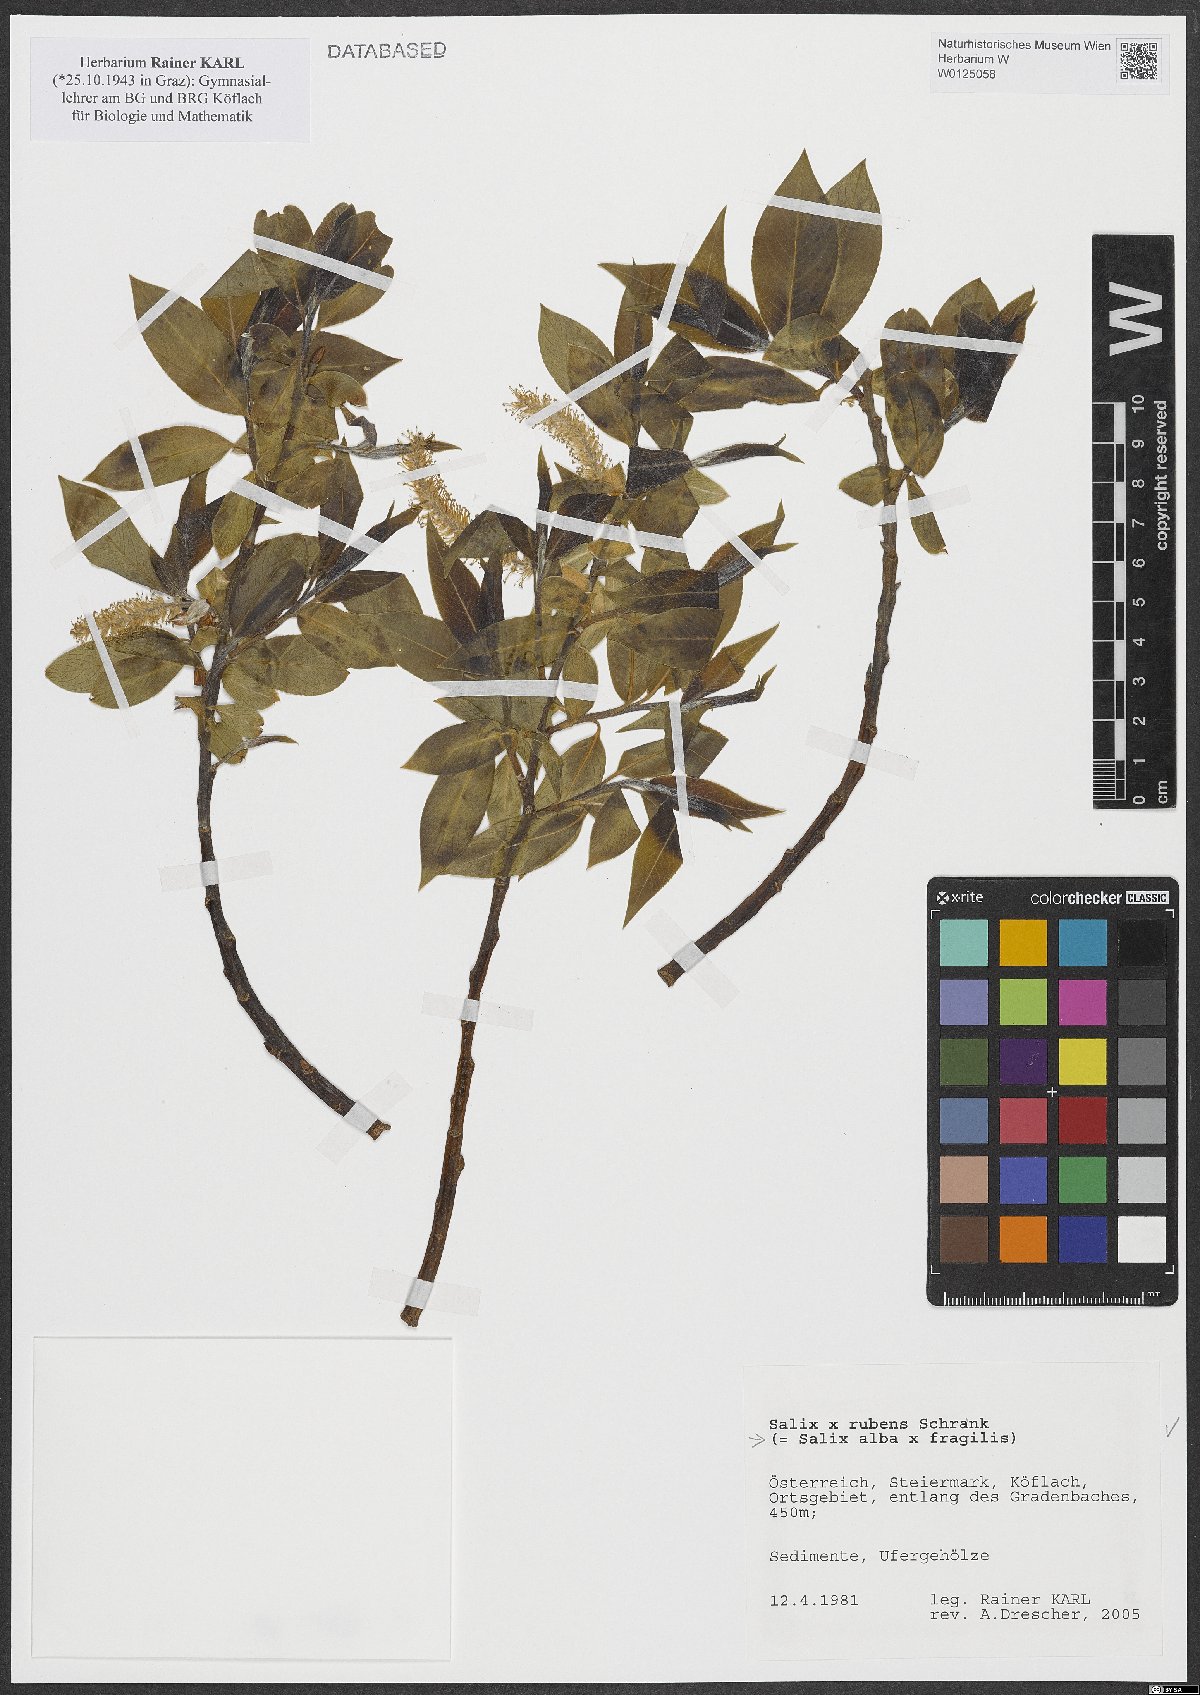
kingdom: Plantae
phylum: Tracheophyta
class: Magnoliopsida
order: Malpighiales
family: Salicaceae
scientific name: Salicaceae
